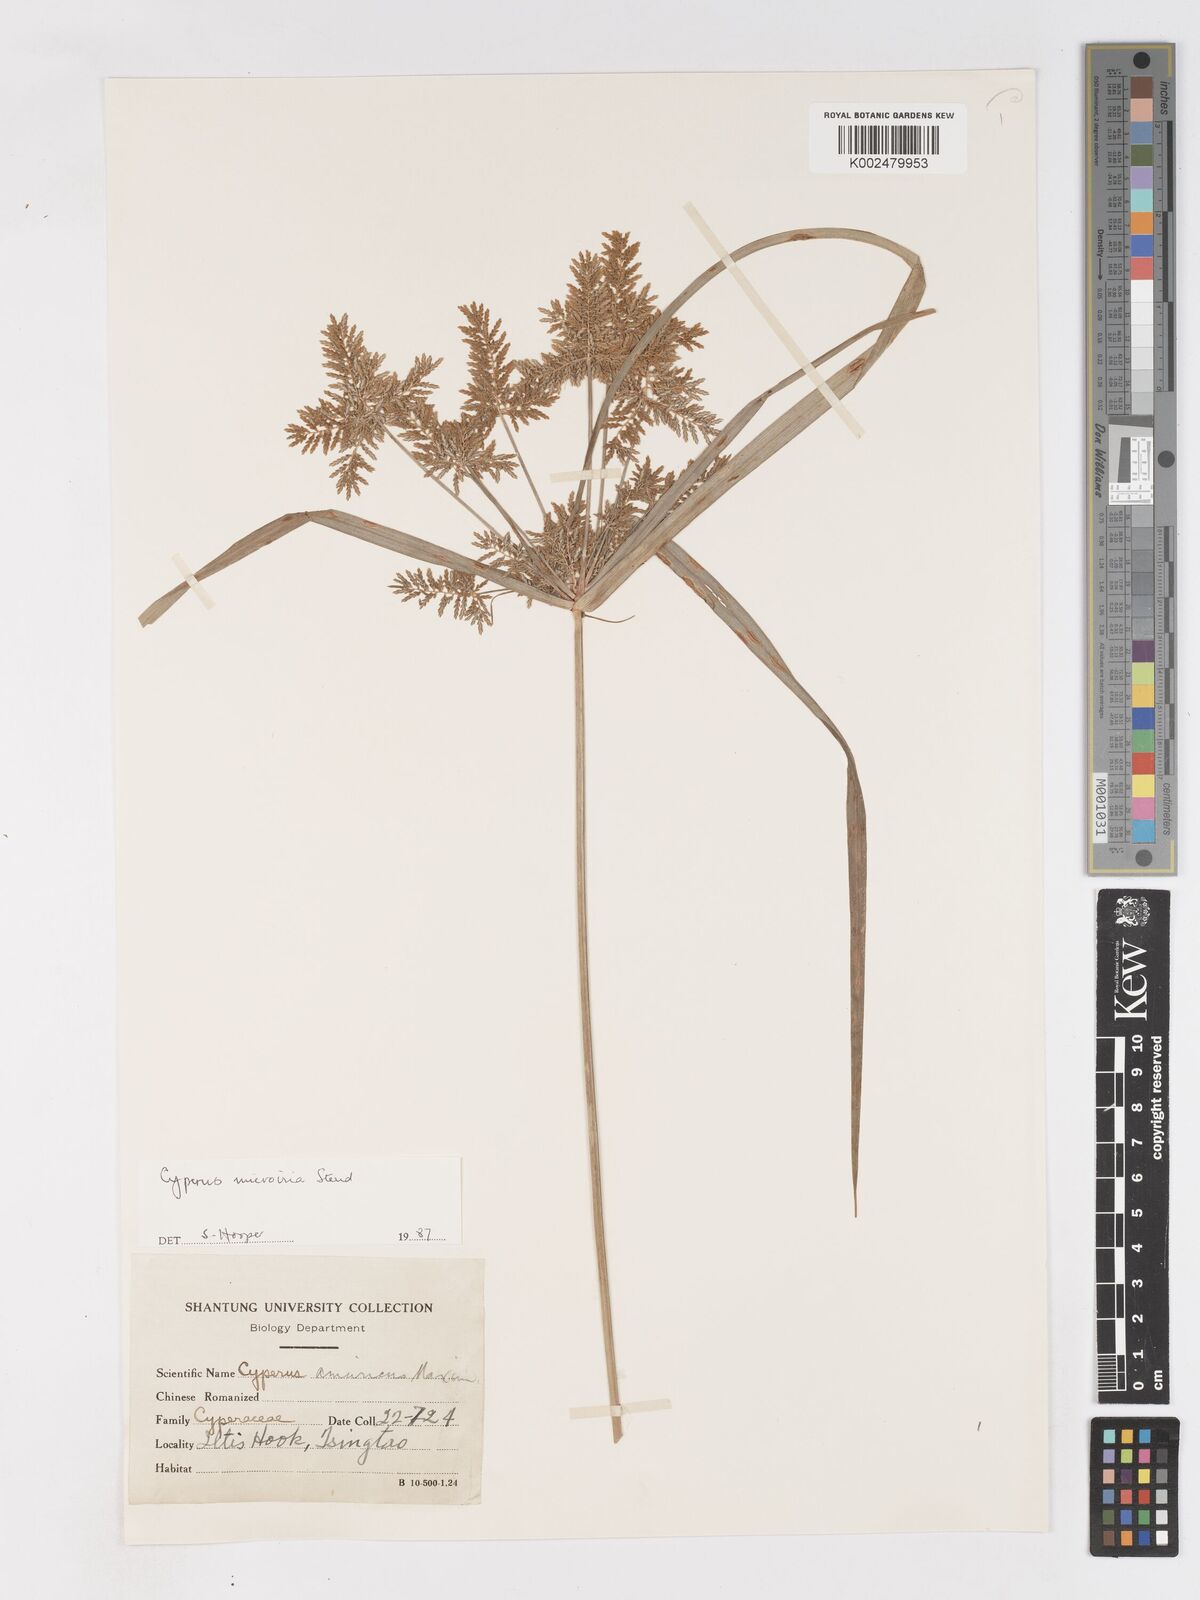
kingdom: Plantae
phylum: Tracheophyta
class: Liliopsida
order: Poales
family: Cyperaceae
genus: Cyperus
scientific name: Cyperus microiria
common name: Asian flatsedge
